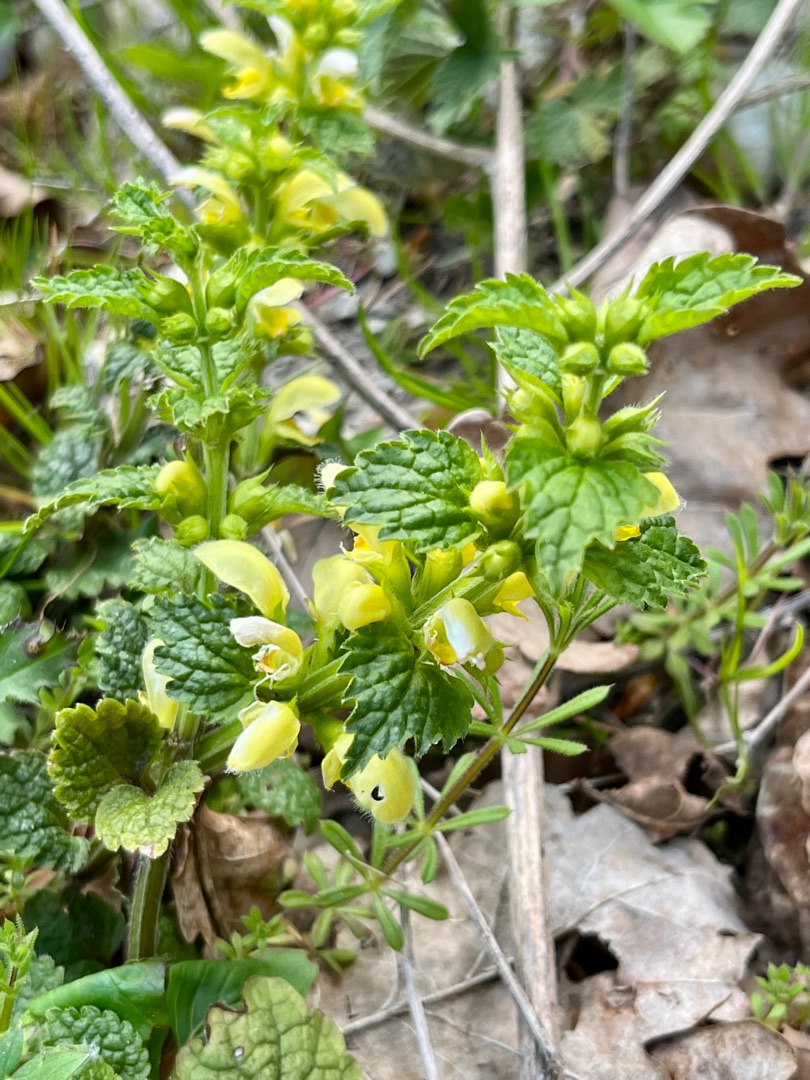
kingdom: Plantae
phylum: Tracheophyta
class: Magnoliopsida
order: Lamiales
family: Lamiaceae
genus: Lamium
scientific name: Lamium galeobdolon
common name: Guldnælde
